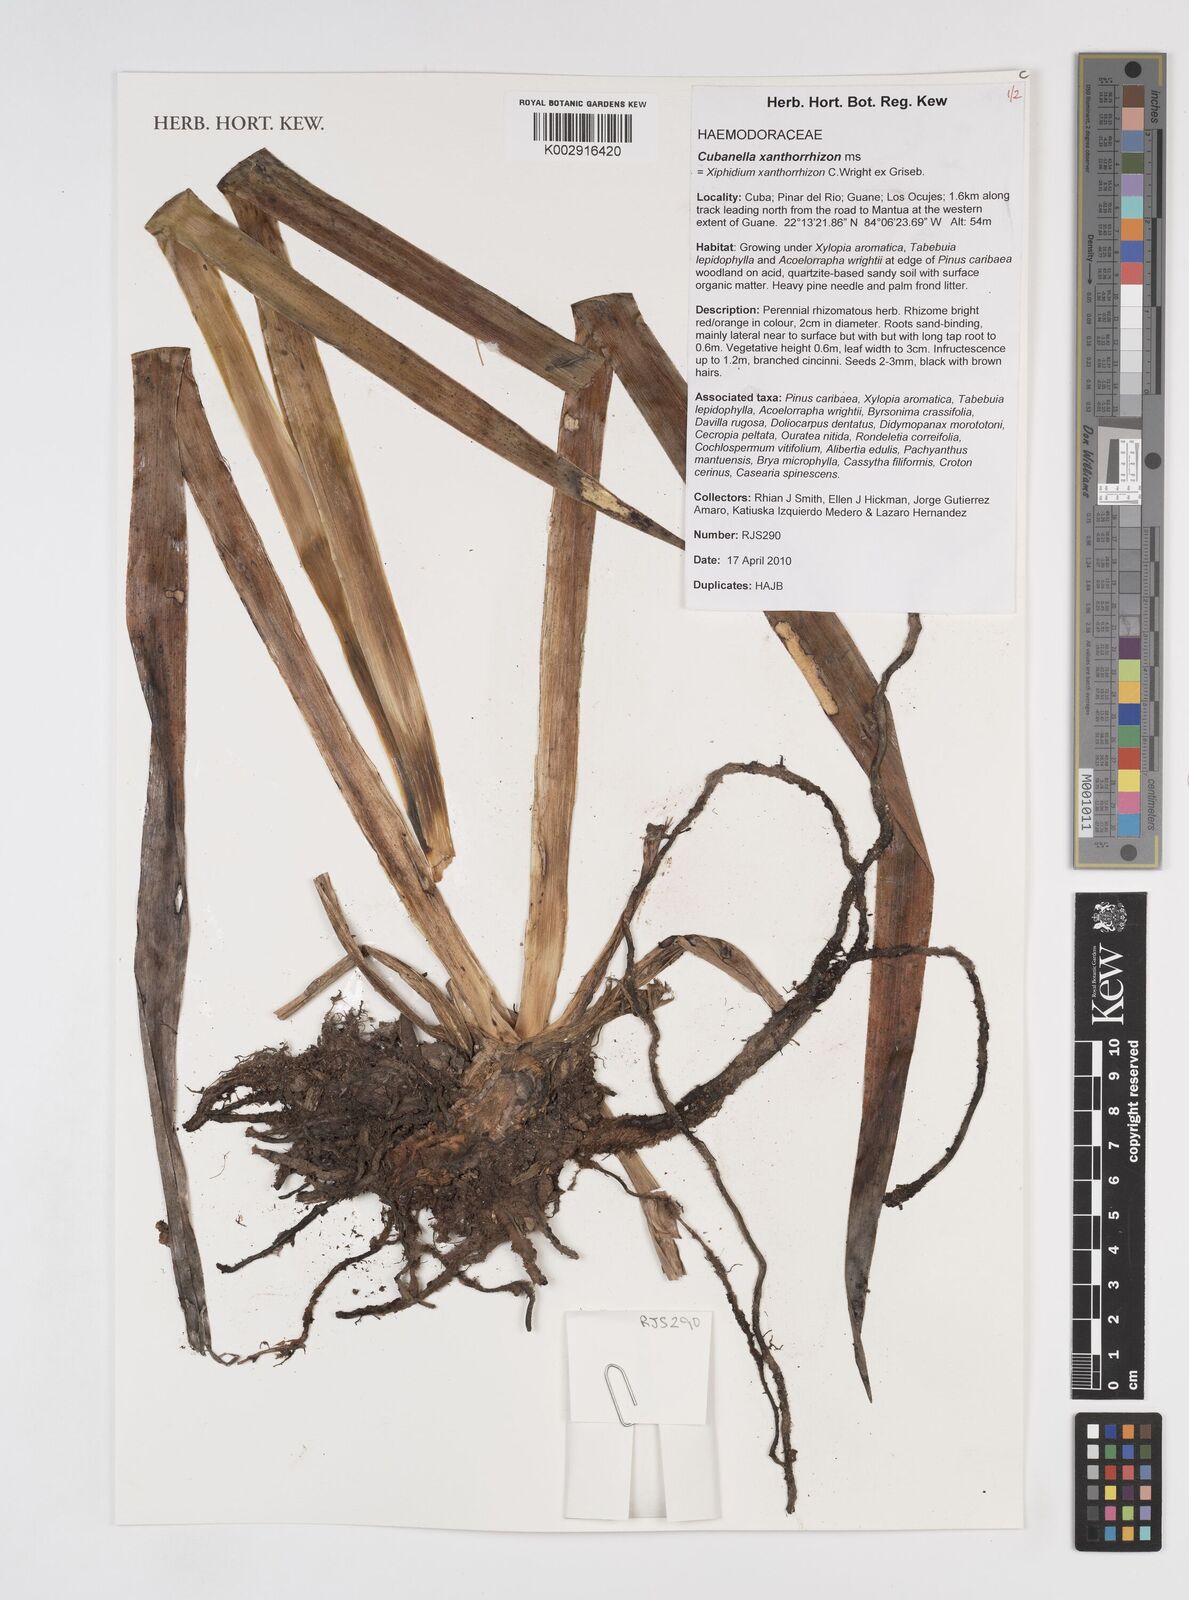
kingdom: Plantae
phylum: Tracheophyta
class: Liliopsida
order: Commelinales
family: Haemodoraceae
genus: Cubanicula
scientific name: Cubanicula xanthorrhizos
